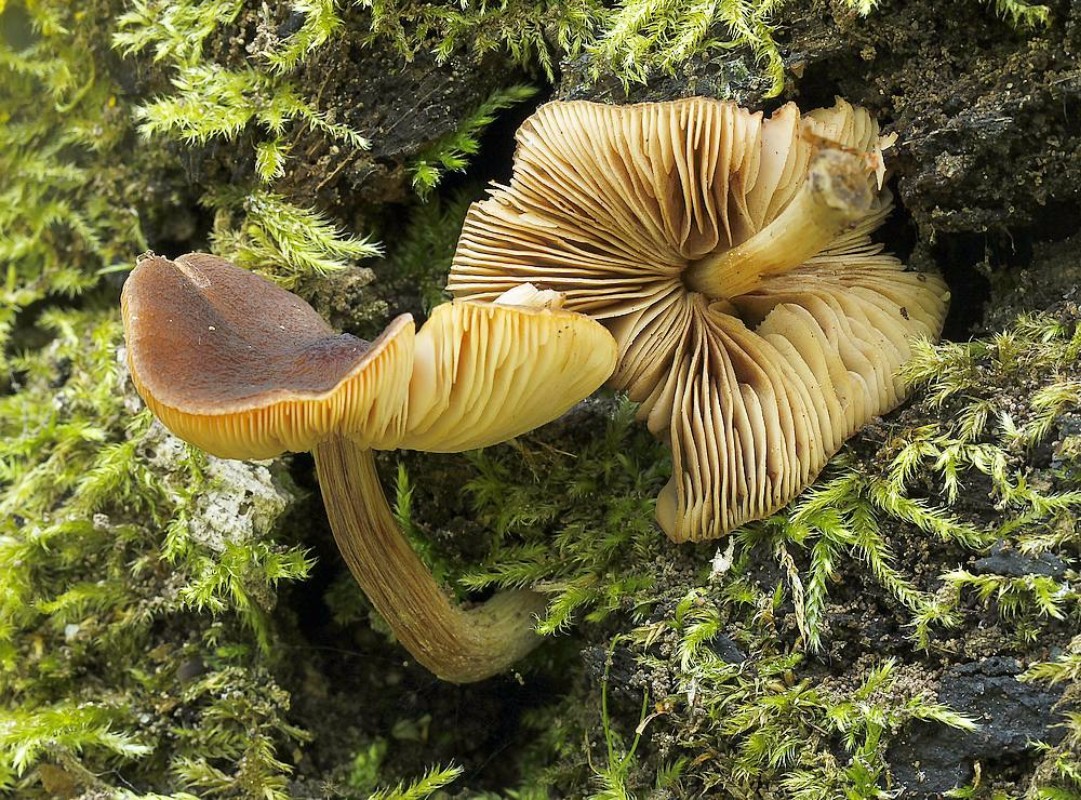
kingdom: Fungi
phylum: Basidiomycota
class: Agaricomycetes
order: Agaricales
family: Pluteaceae
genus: Pluteus
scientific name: Pluteus phlebophorus
